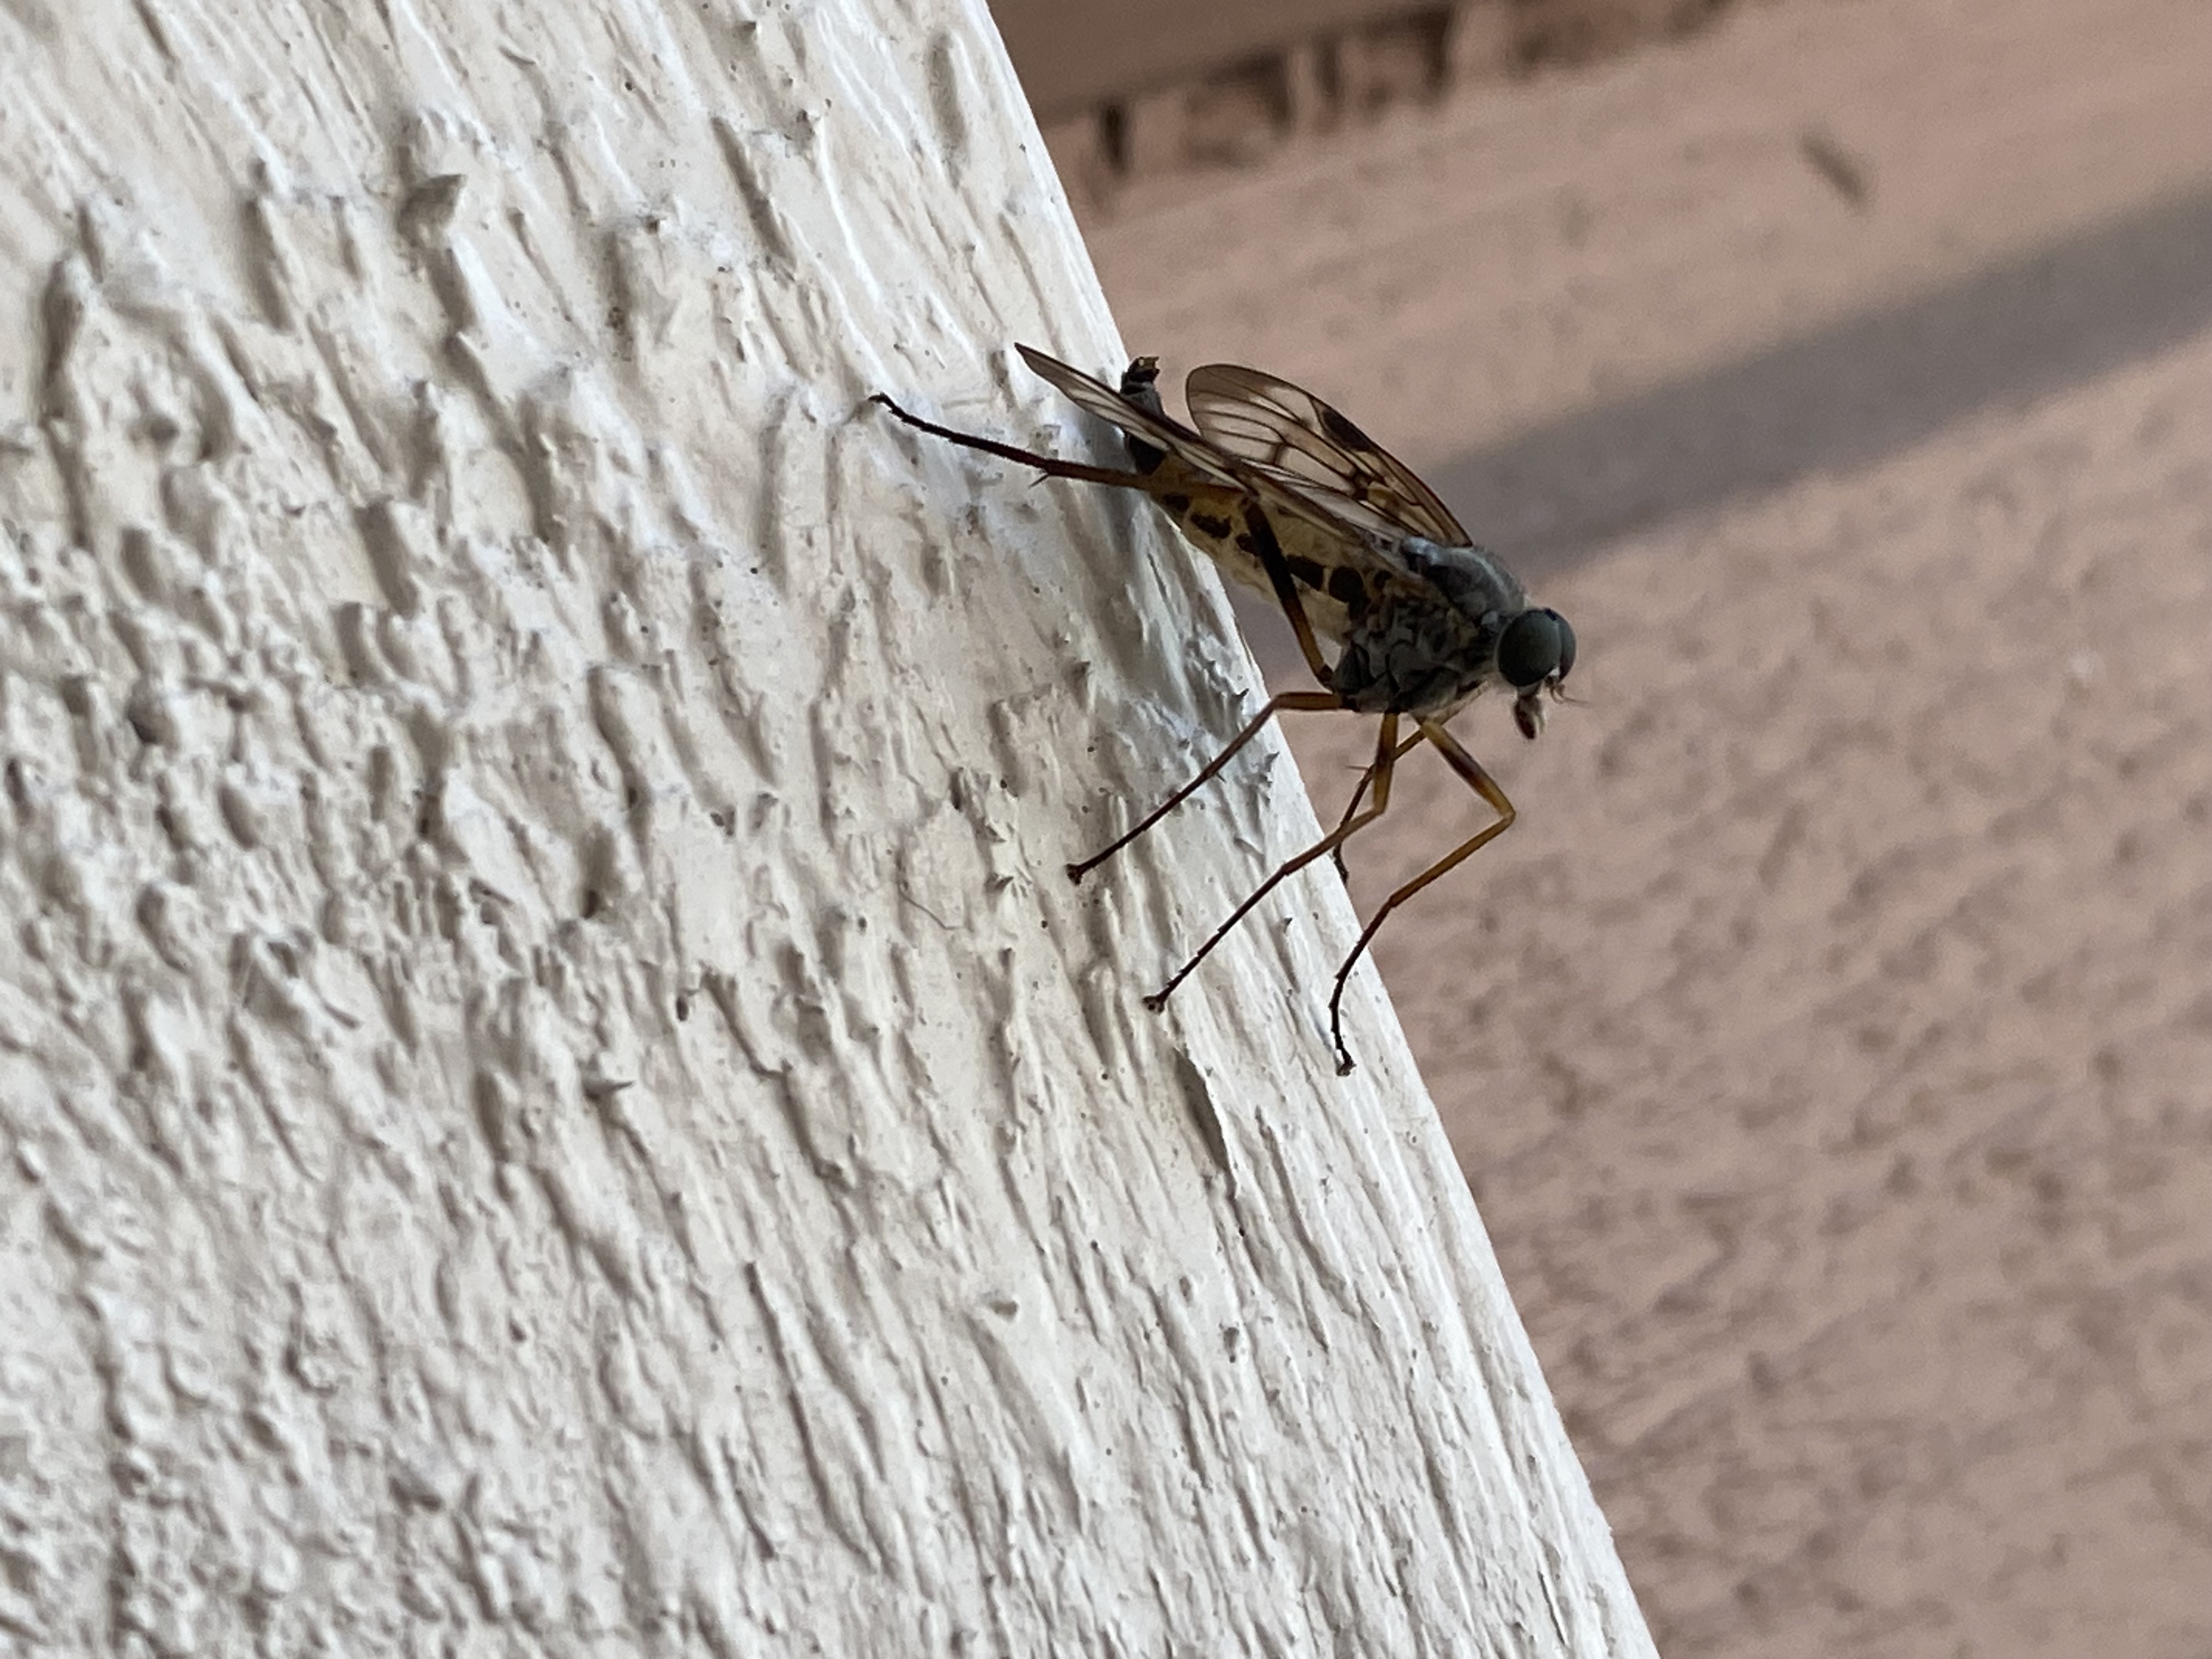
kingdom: Animalia
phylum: Arthropoda
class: Insecta
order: Diptera
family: Rhagionidae
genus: Rhagio
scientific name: Rhagio
